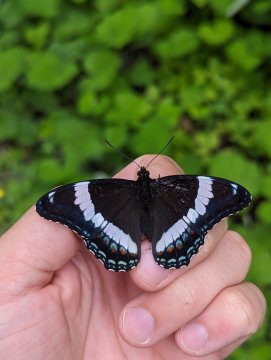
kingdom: Animalia
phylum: Arthropoda
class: Insecta
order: Lepidoptera
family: Nymphalidae
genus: Limenitis
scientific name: Limenitis arthemis
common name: Red-spotted Admiral
